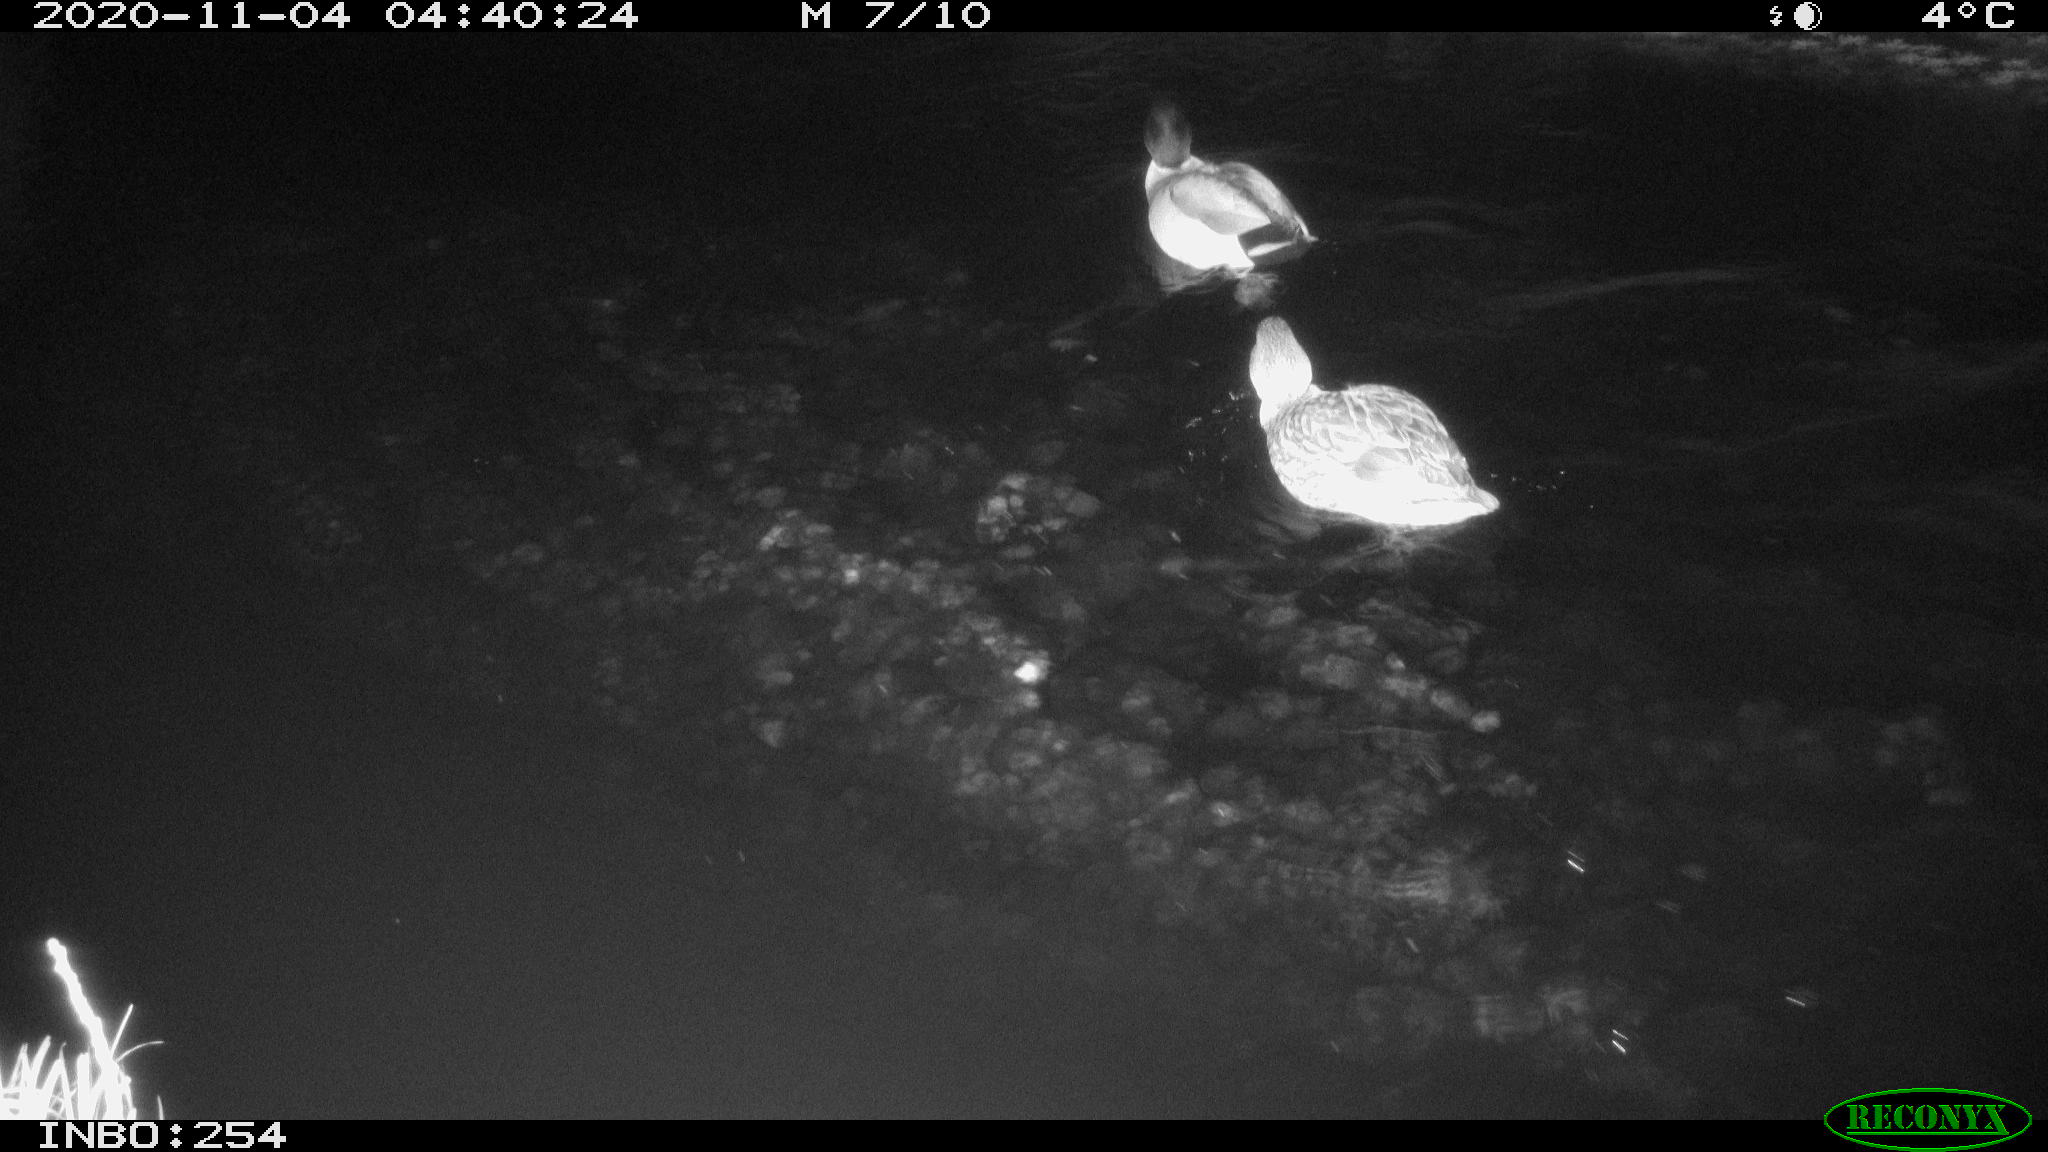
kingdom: Animalia
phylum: Chordata
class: Aves
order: Anseriformes
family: Anatidae
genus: Anas
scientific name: Anas platyrhynchos
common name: Mallard
